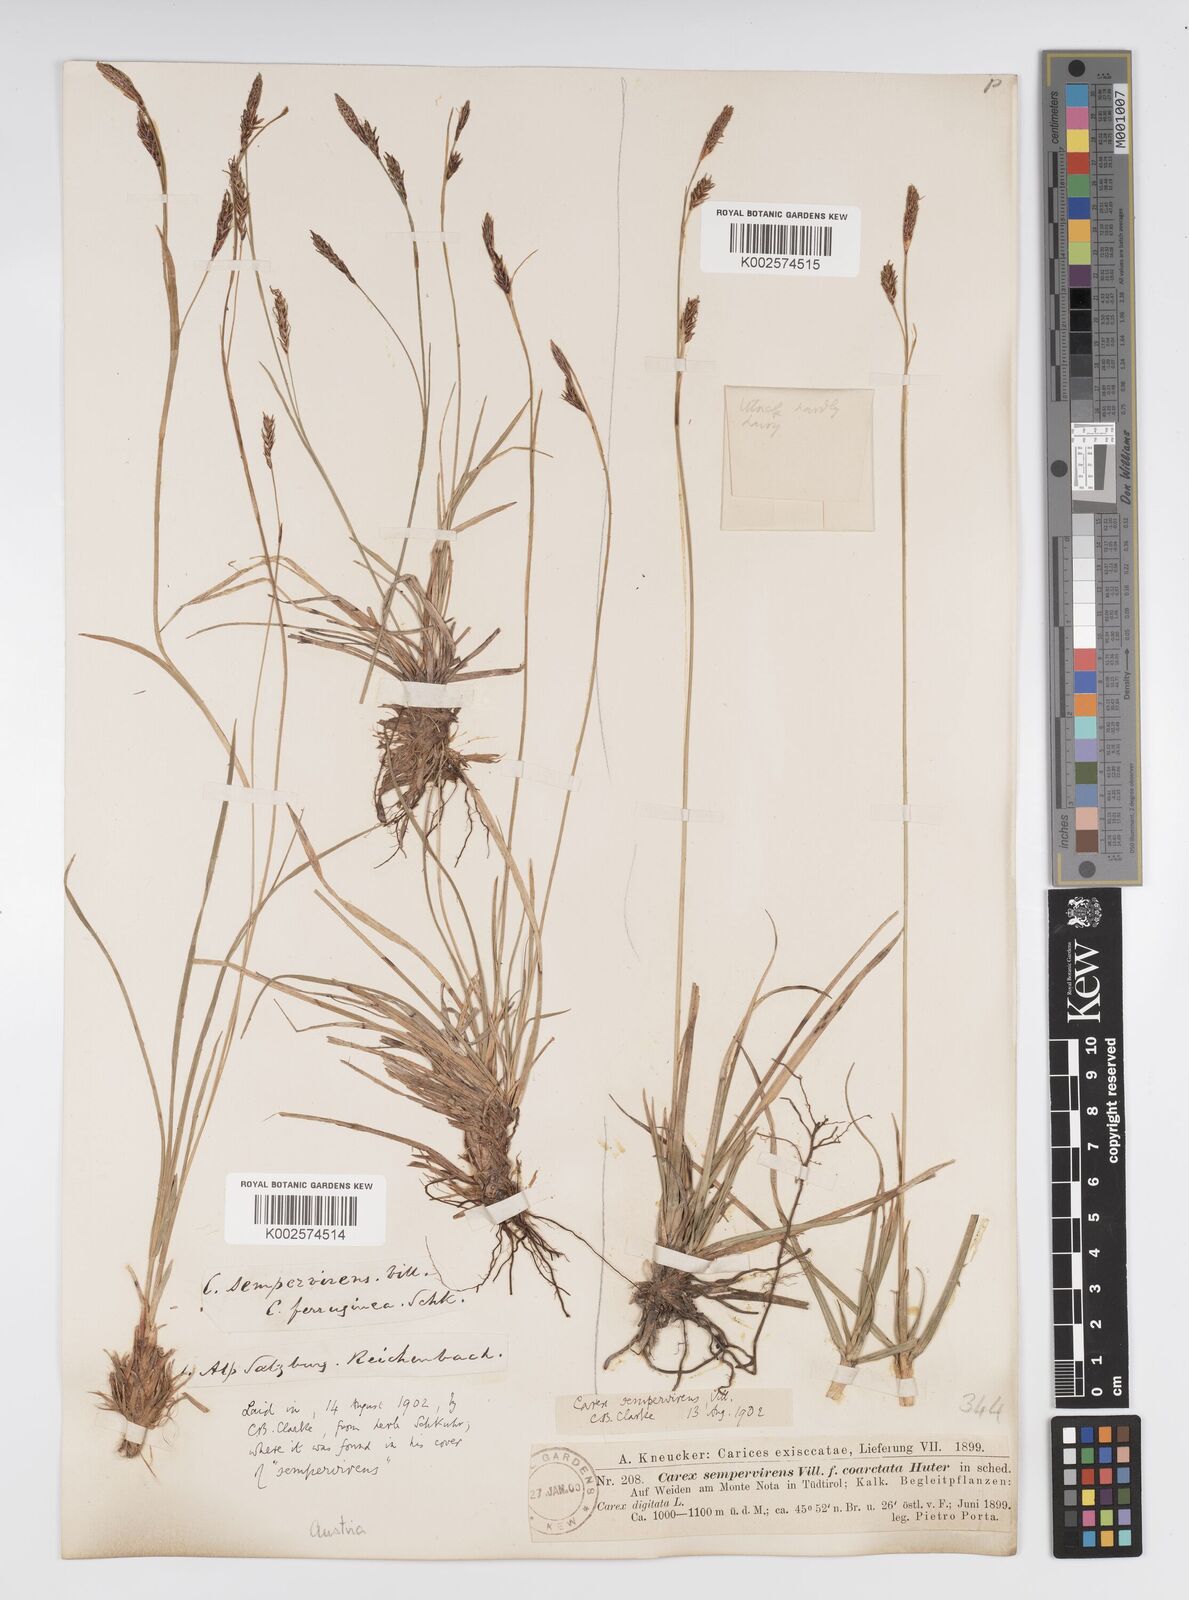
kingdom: Plantae
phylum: Tracheophyta
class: Liliopsida
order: Poales
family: Cyperaceae
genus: Carex
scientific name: Carex sempervirens
